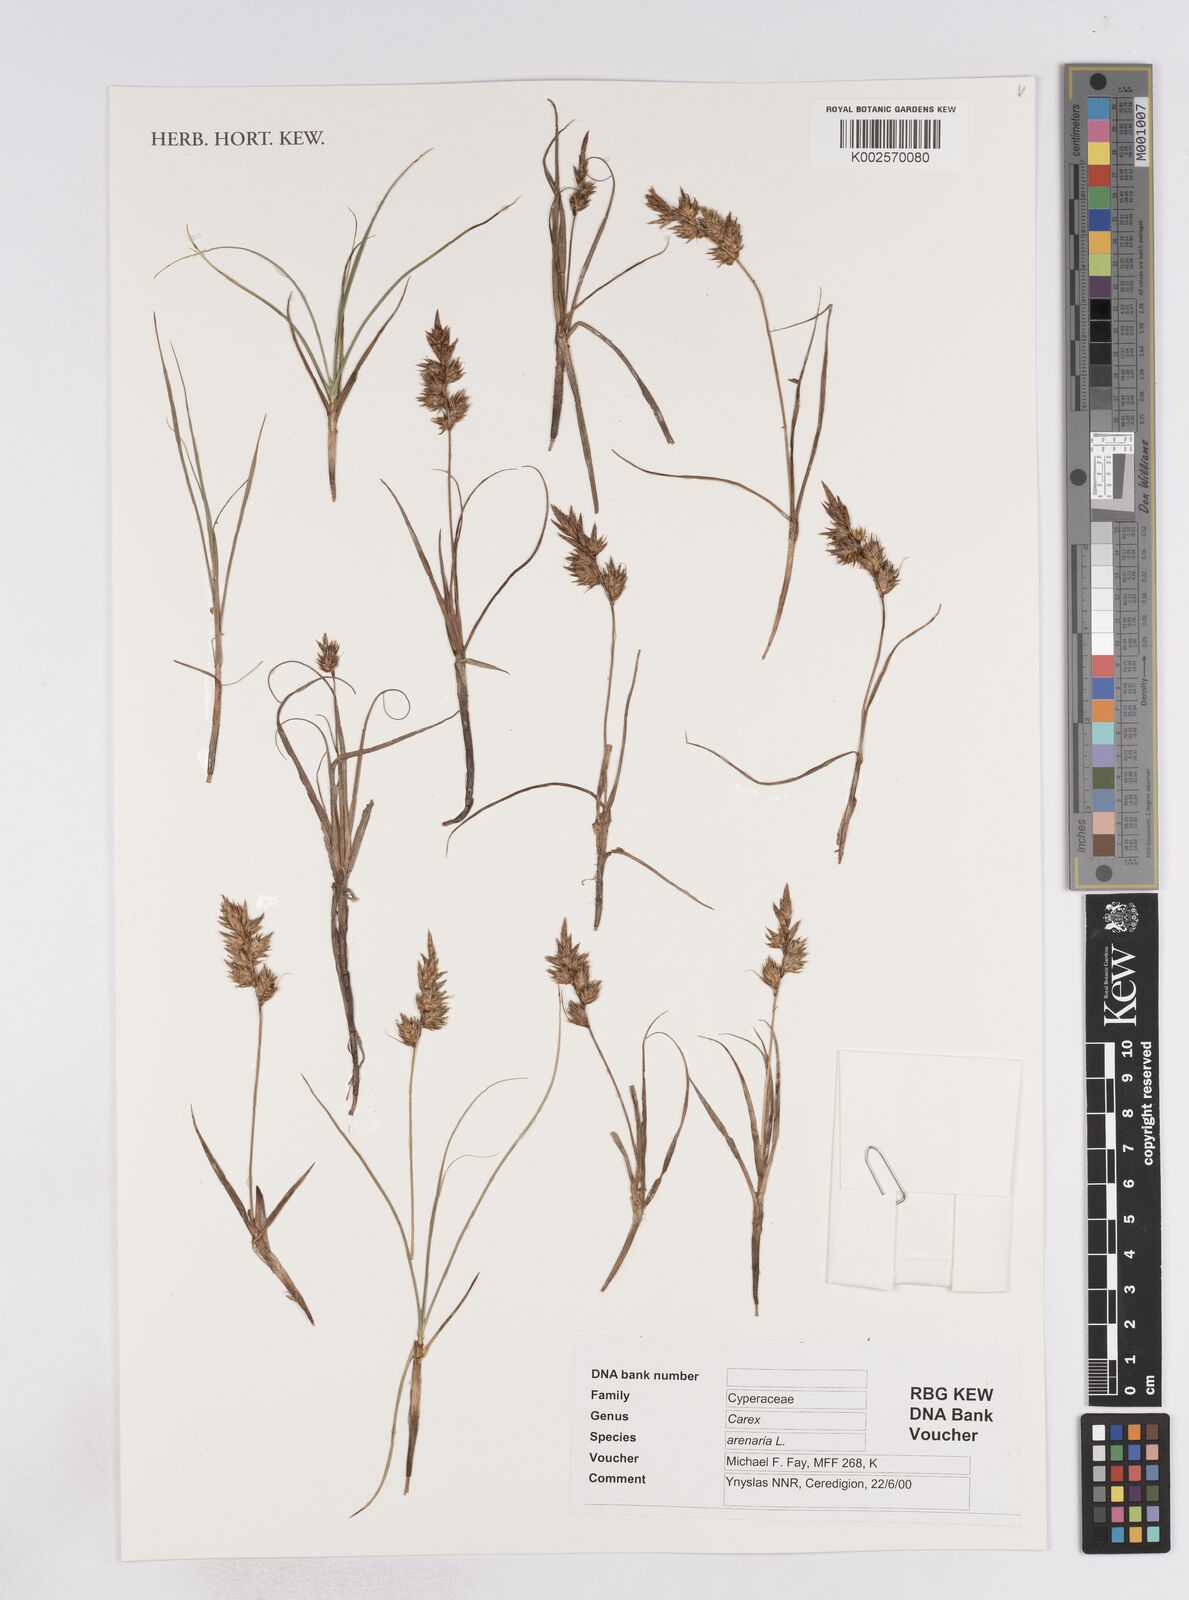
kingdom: Plantae
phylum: Tracheophyta
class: Liliopsida
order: Poales
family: Cyperaceae
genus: Carex
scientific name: Carex pendula
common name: Pendulous sedge
